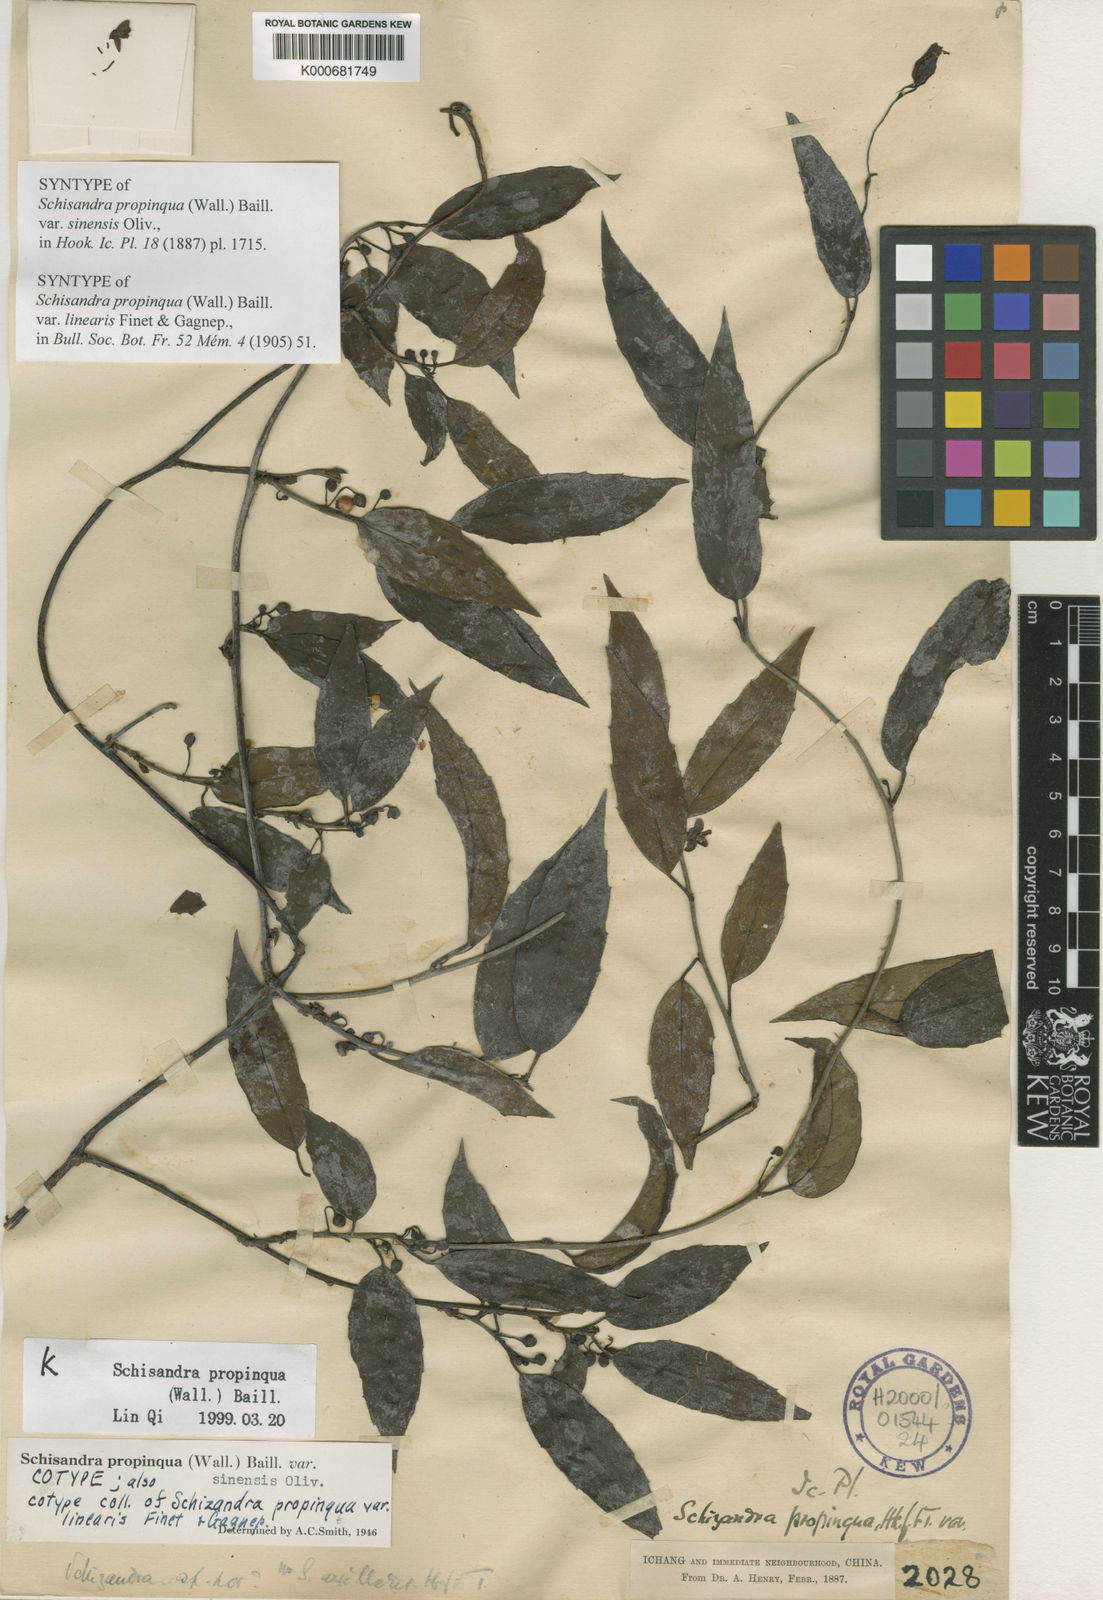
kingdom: Plantae
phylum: Tracheophyta
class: Magnoliopsida
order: Austrobaileyales
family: Schisandraceae
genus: Schisandra
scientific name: Schisandra propinqua
